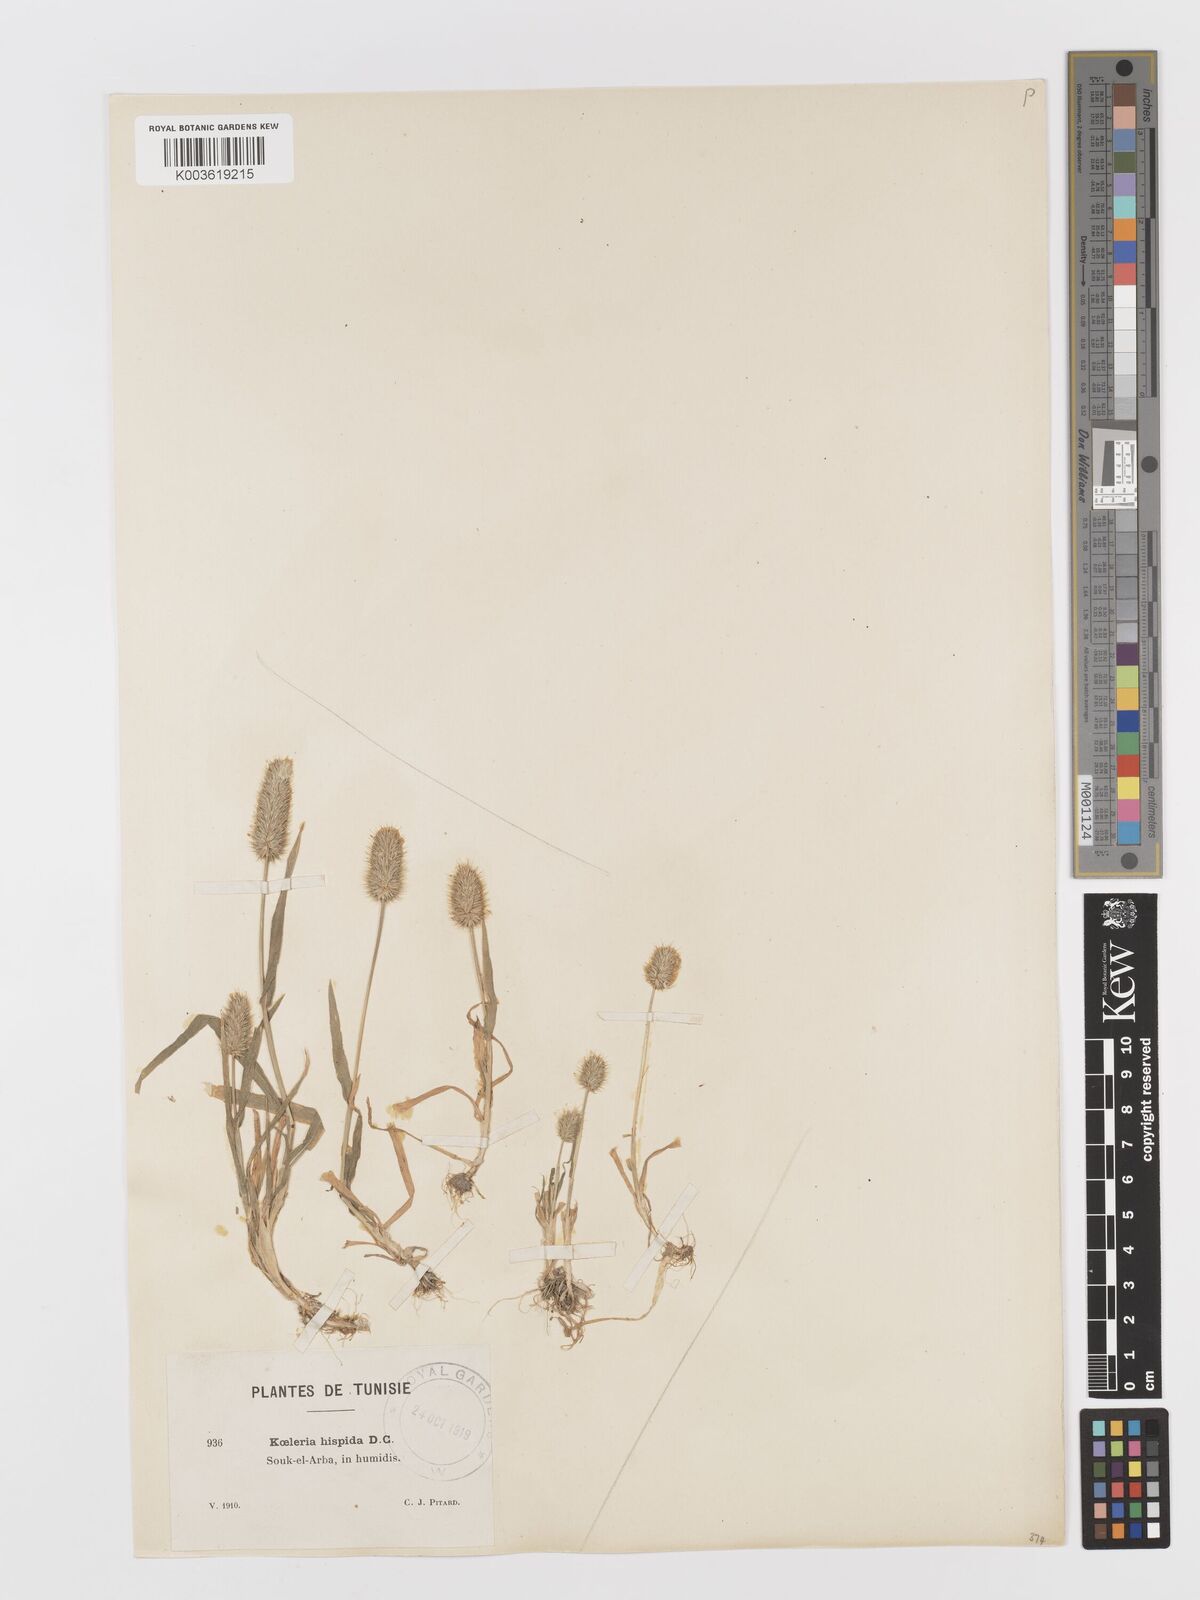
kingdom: Plantae
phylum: Tracheophyta
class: Liliopsida
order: Poales
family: Poaceae
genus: Rostraria
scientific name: Rostraria hispida
